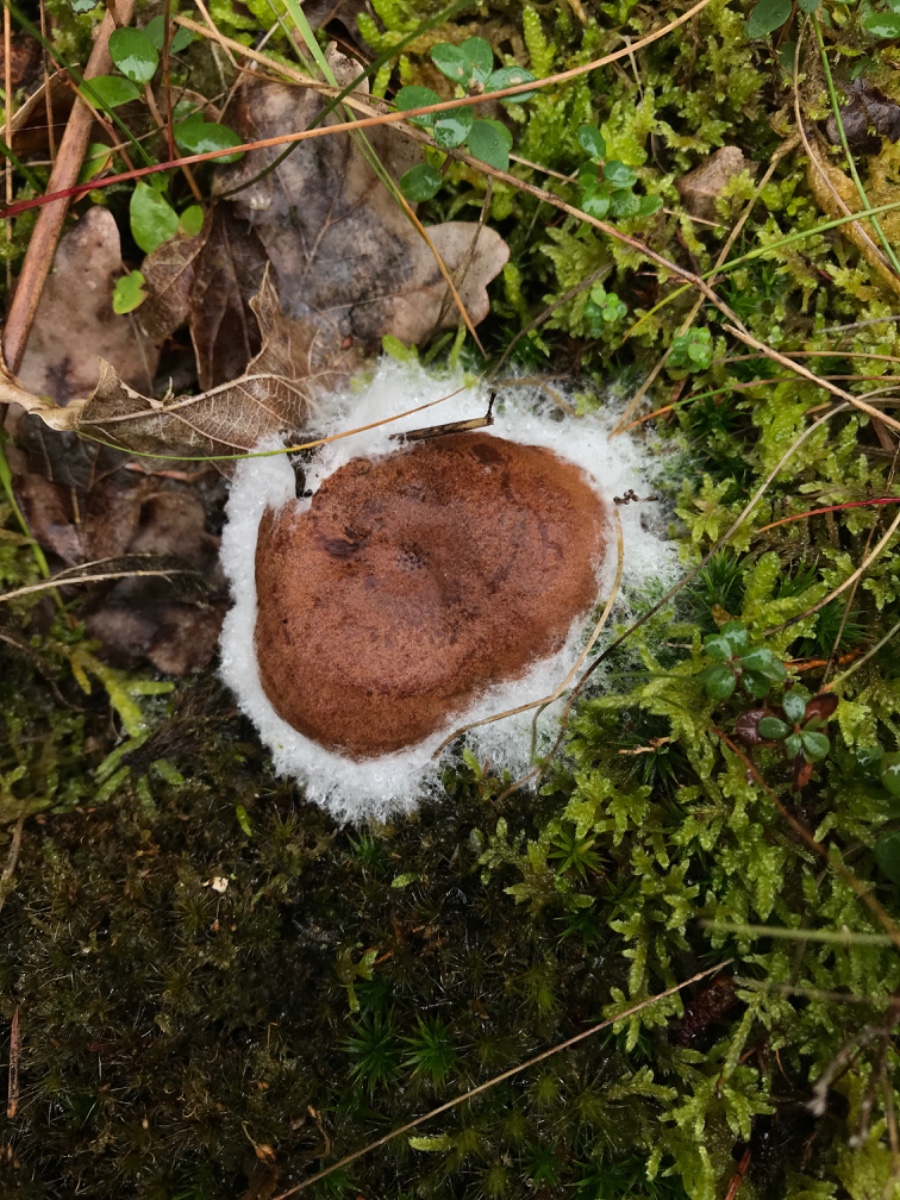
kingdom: Fungi
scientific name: Fungi
